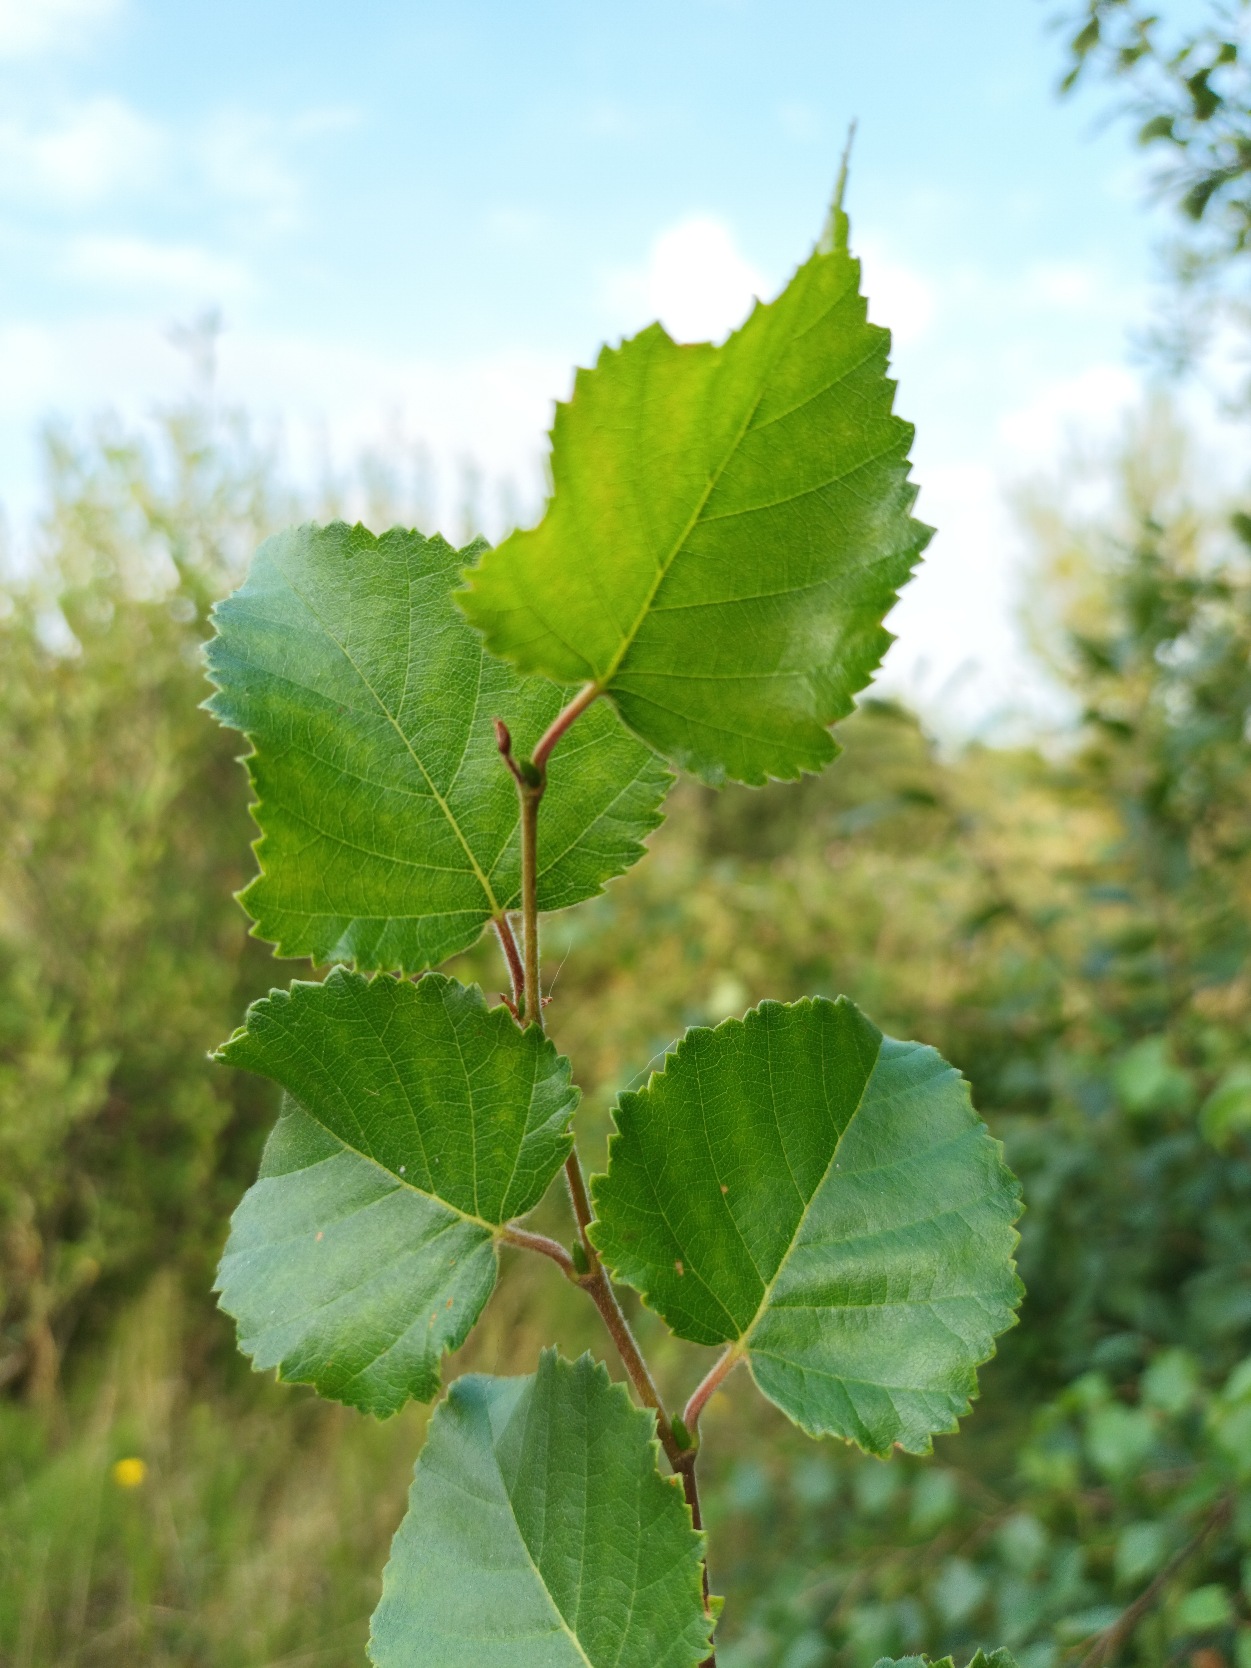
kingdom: Plantae
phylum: Tracheophyta
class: Magnoliopsida
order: Fagales
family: Betulaceae
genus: Betula
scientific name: Betula pubescens
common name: Dun-birk
